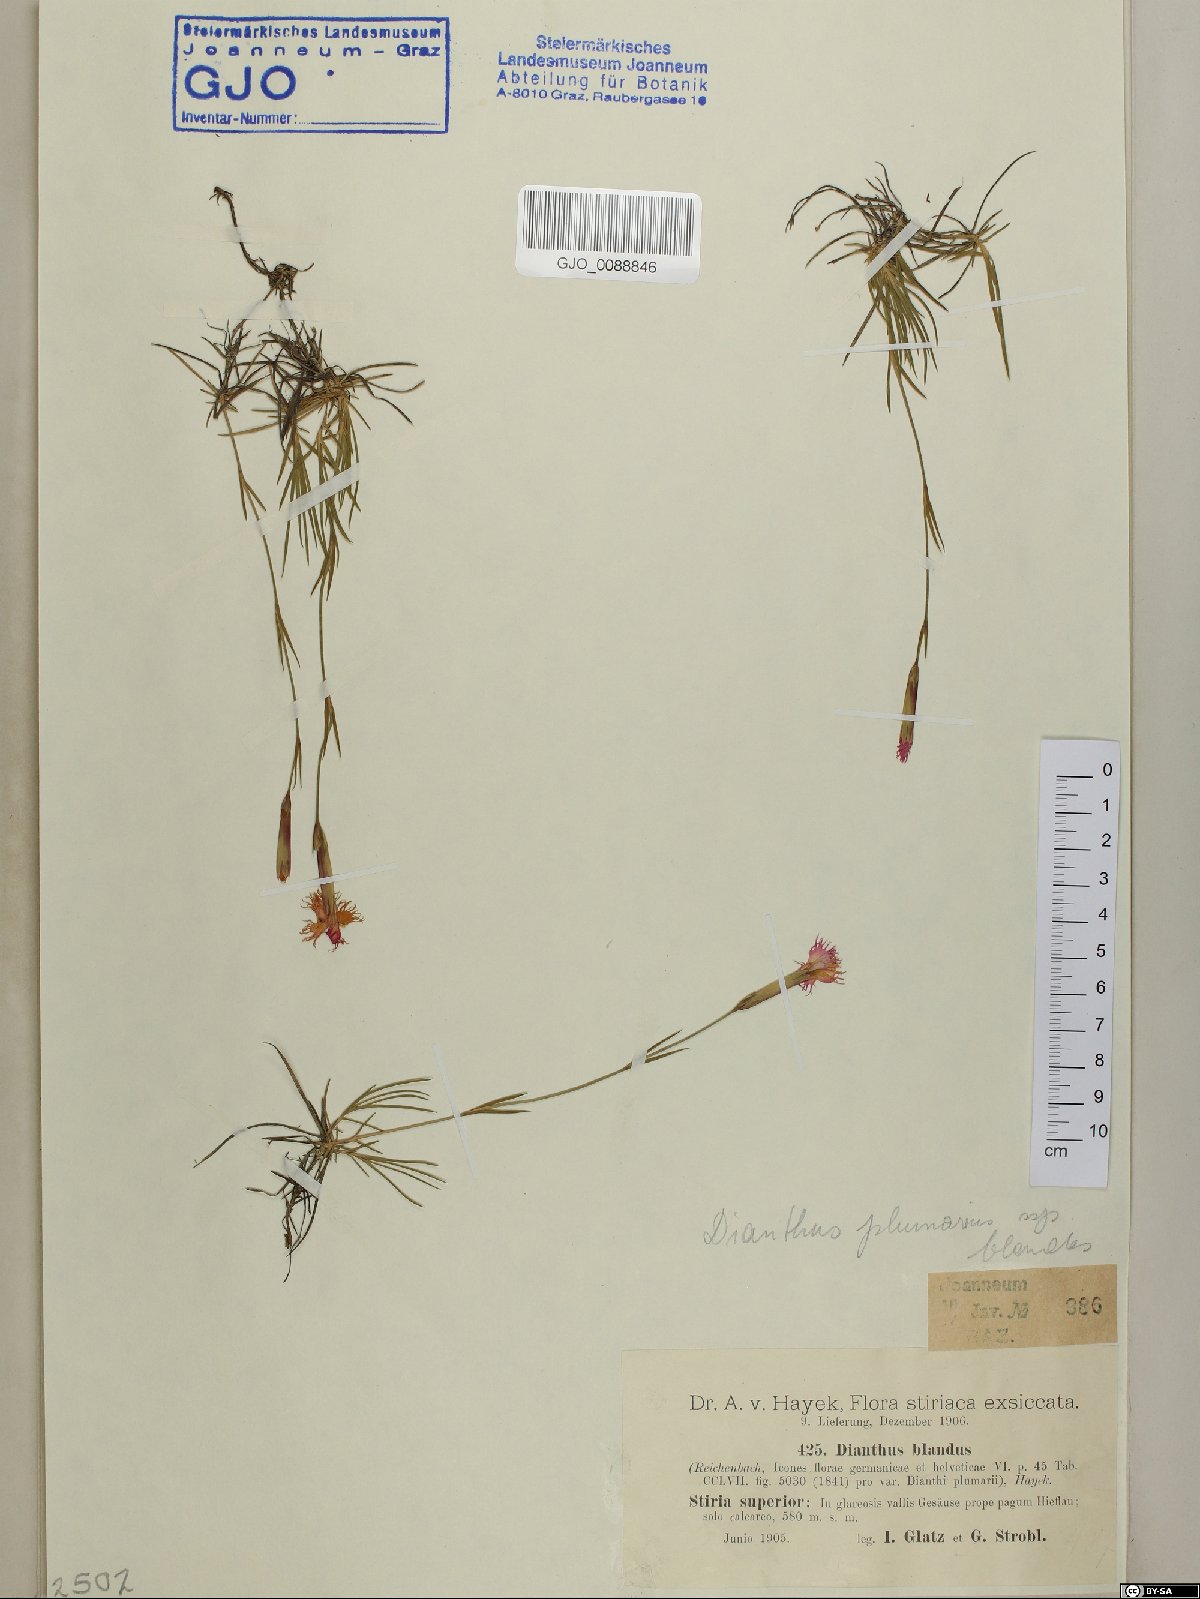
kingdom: Plantae
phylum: Tracheophyta
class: Magnoliopsida
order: Caryophyllales
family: Caryophyllaceae
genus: Dianthus
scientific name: Dianthus plumarius
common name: Pink
